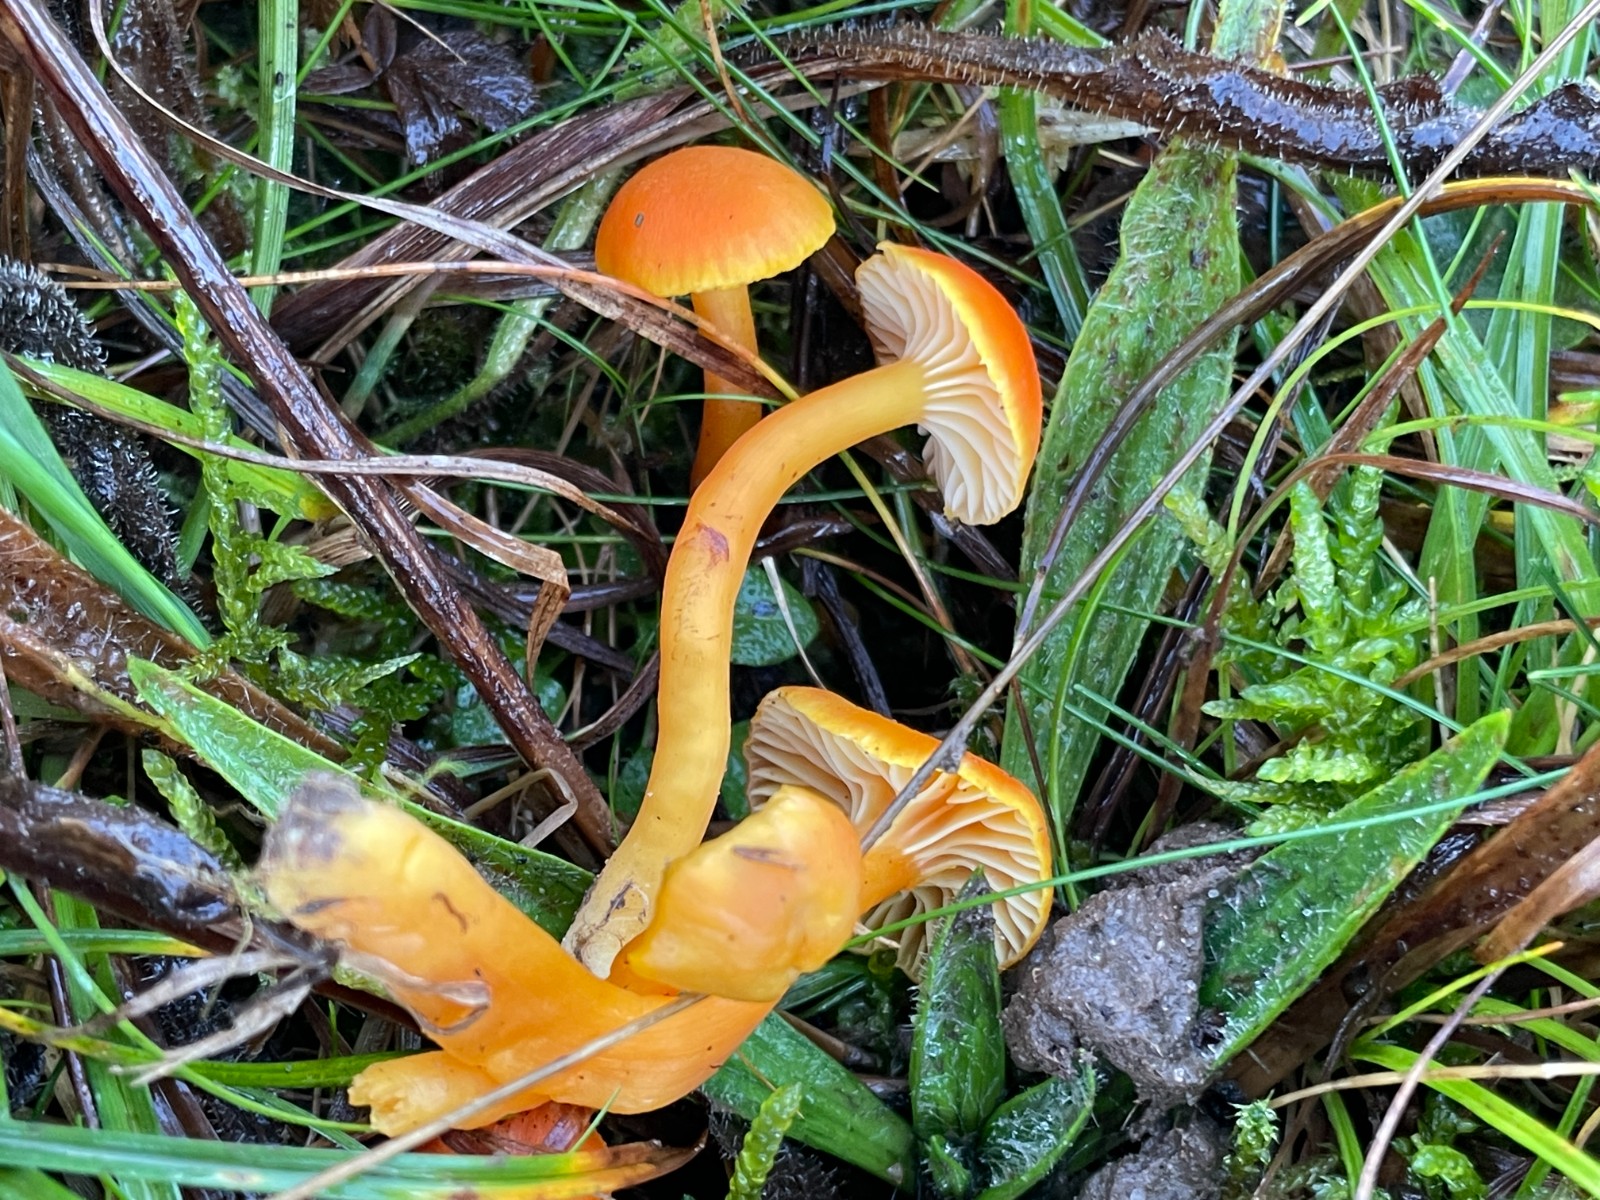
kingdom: Fungi
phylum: Basidiomycota
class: Agaricomycetes
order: Agaricales
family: Hygrophoraceae
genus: Hygrocybe
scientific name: Hygrocybe reidii
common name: honning-vokshat
